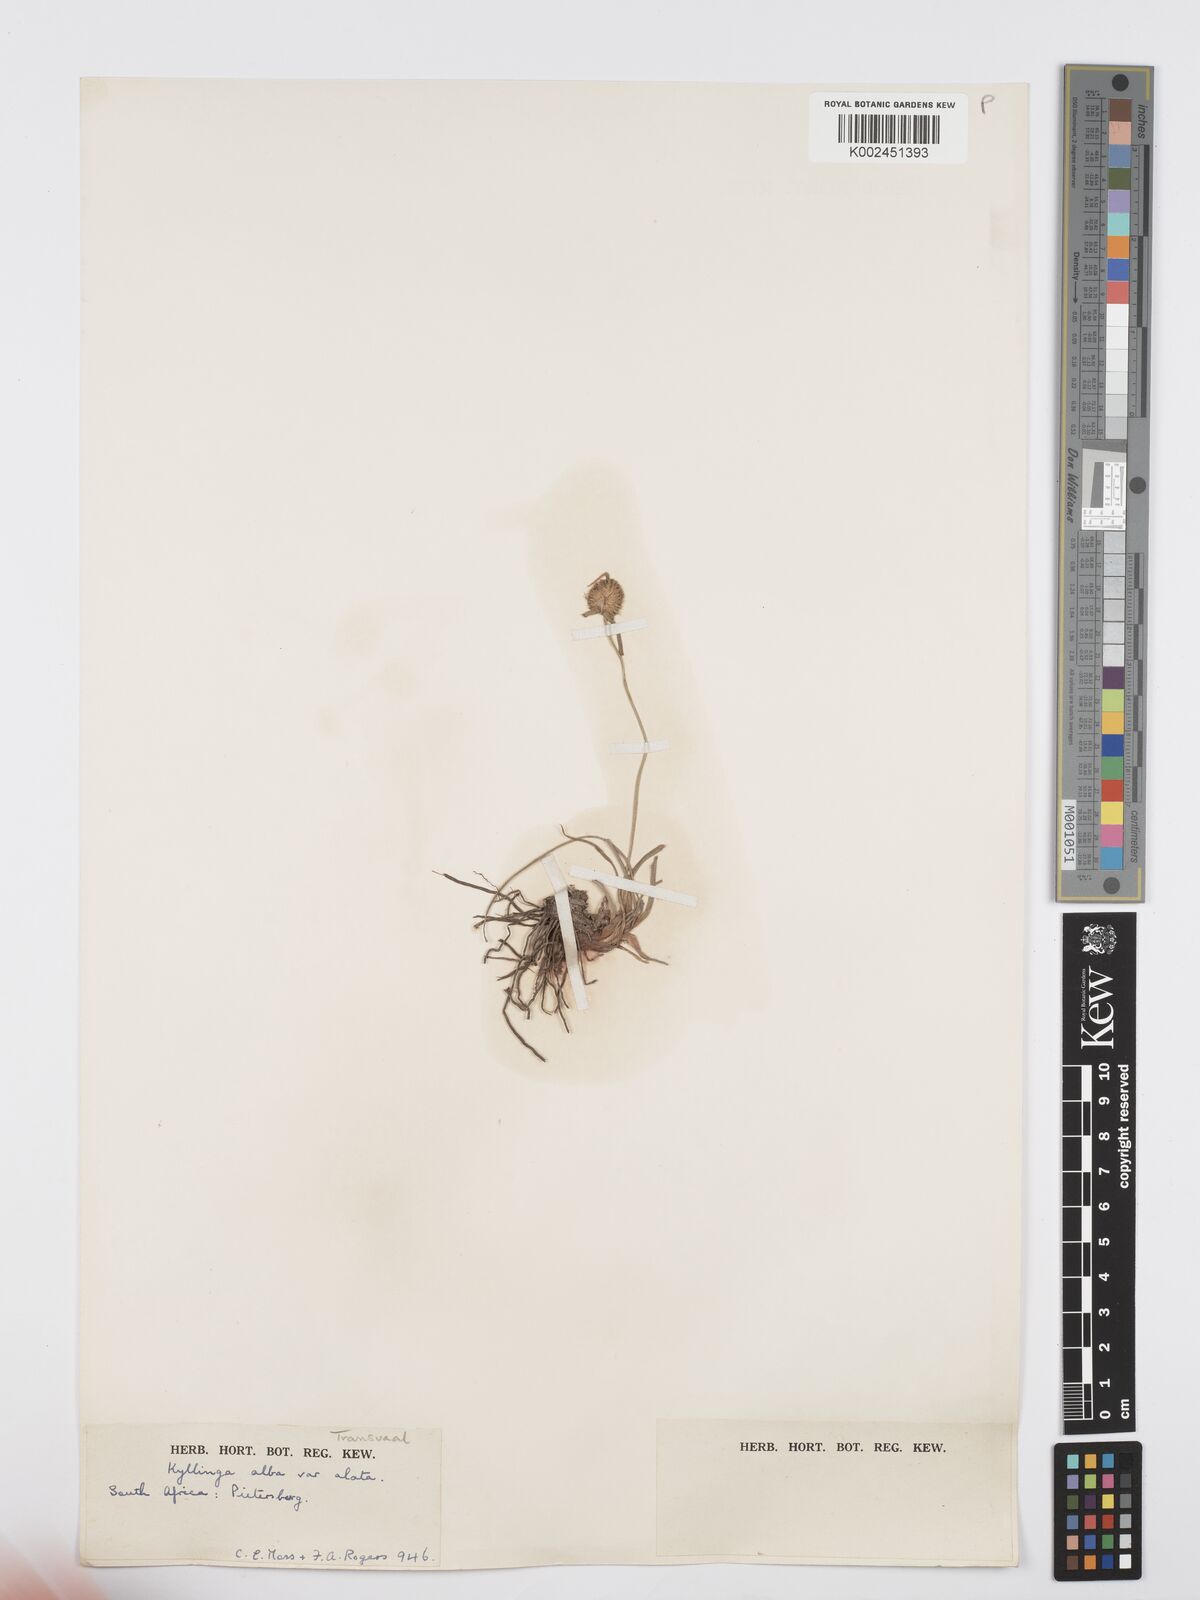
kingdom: Plantae
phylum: Tracheophyta
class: Liliopsida
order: Poales
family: Cyperaceae
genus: Cyperus
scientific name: Cyperus alatus
